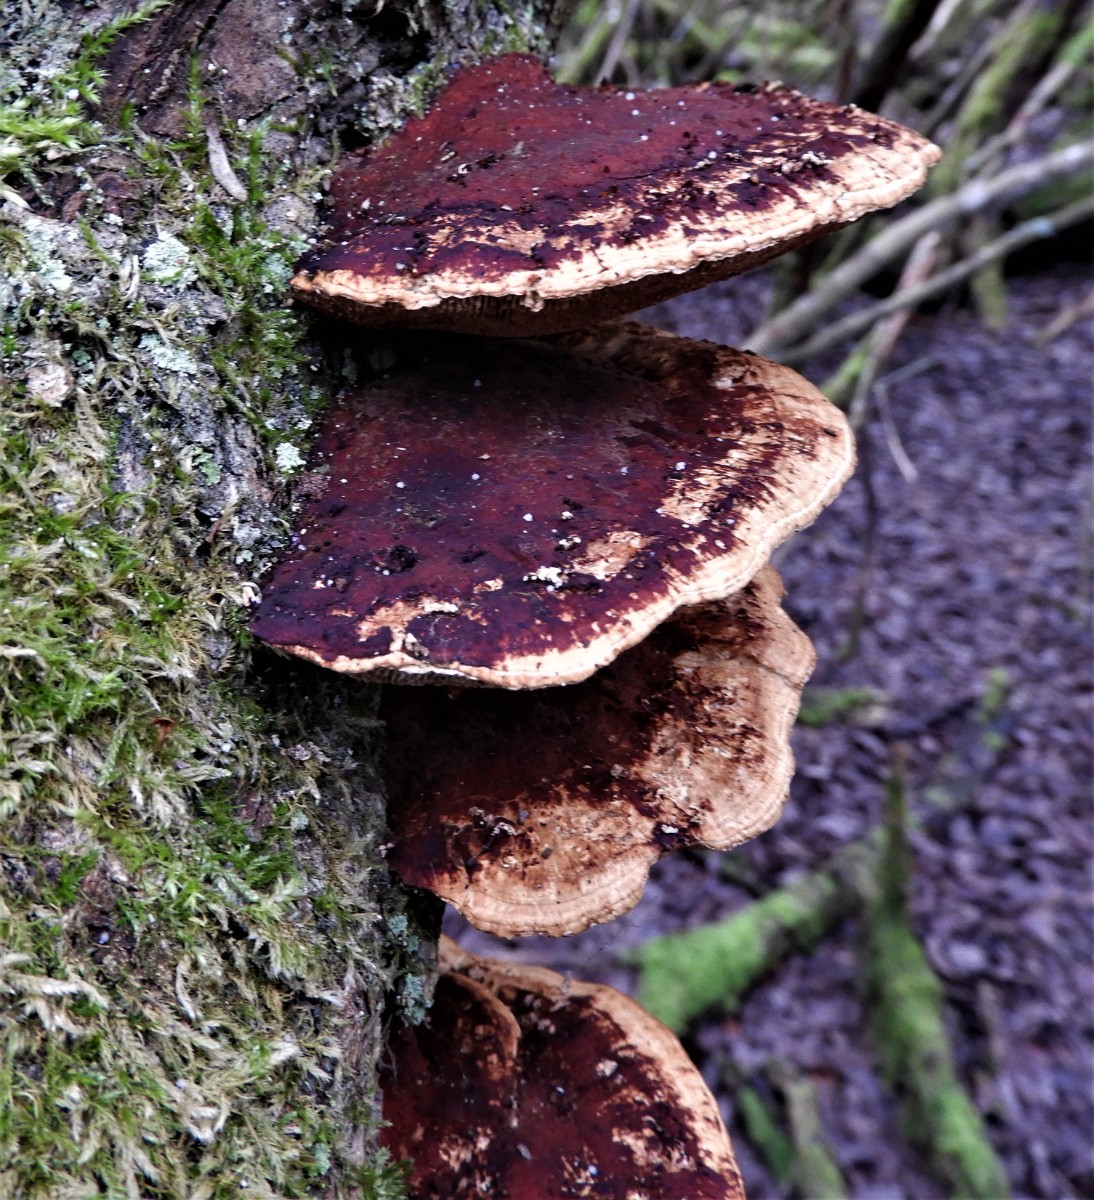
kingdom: Fungi
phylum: Basidiomycota
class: Agaricomycetes
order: Polyporales
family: Polyporaceae
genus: Daedaleopsis
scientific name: Daedaleopsis confragosa
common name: rødmende læderporesvamp
